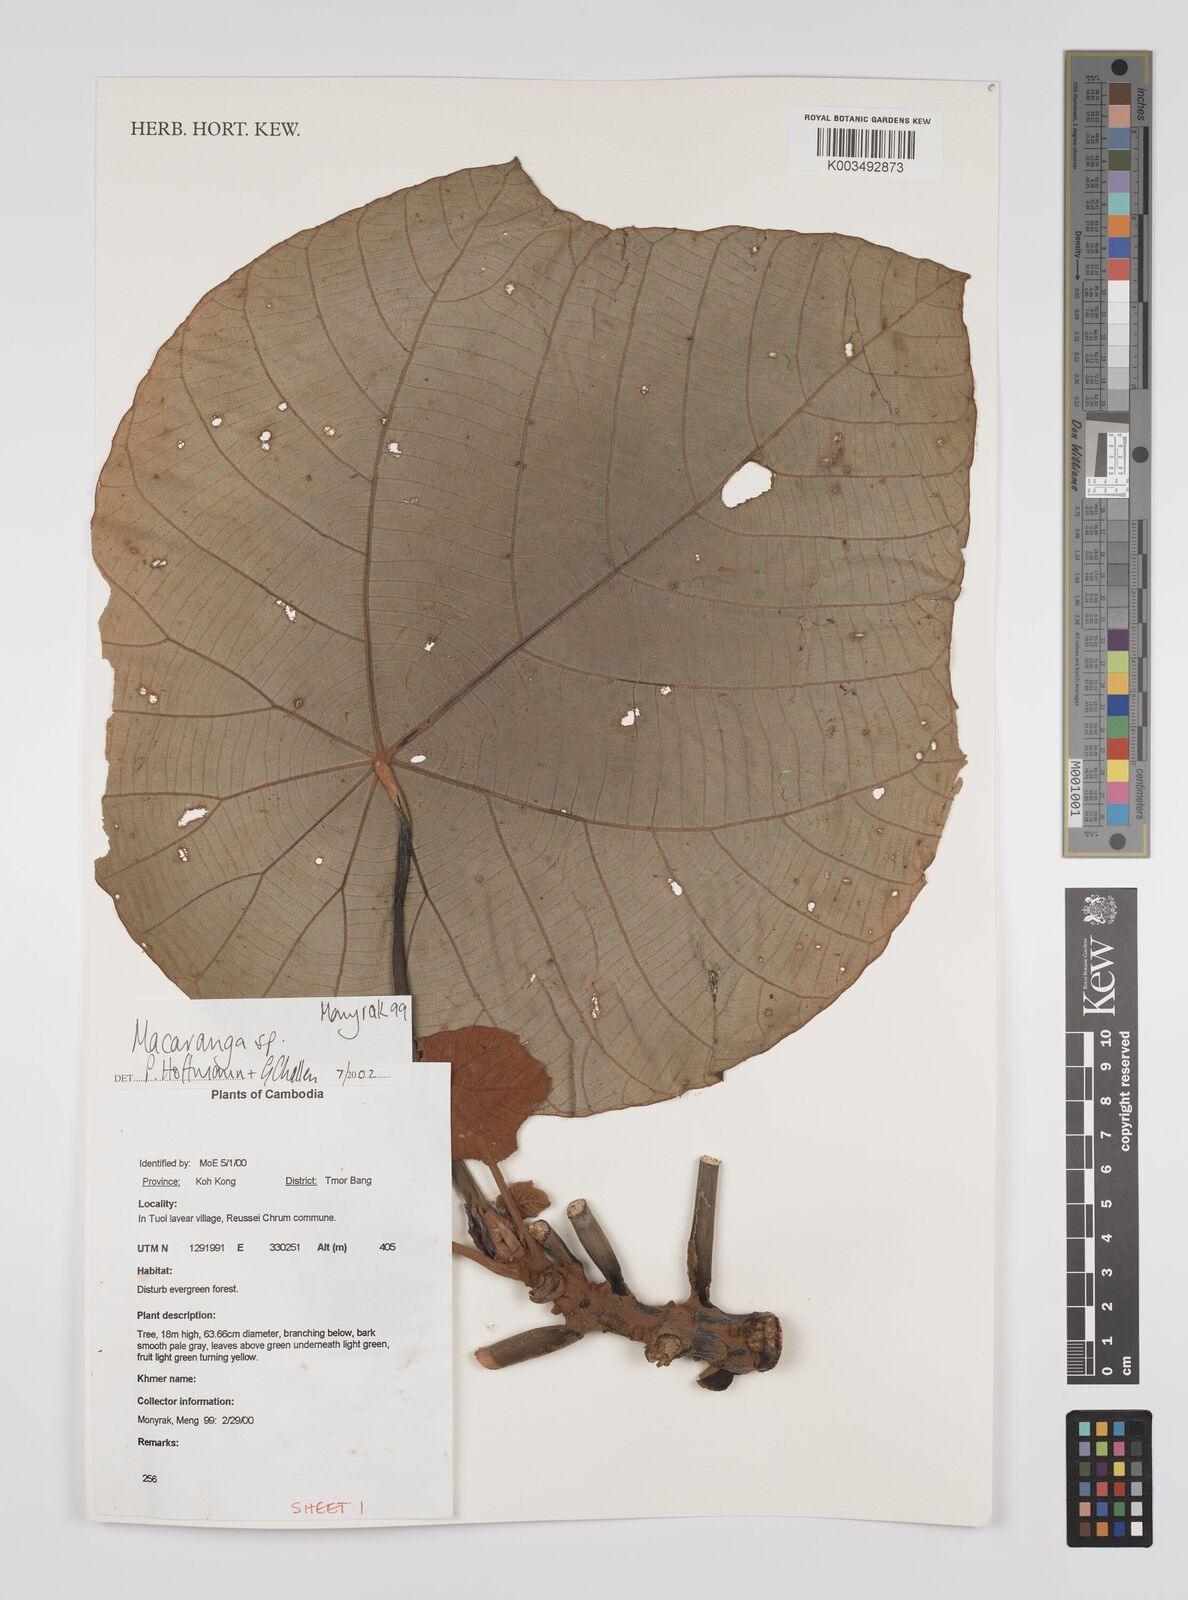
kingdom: Plantae
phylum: Tracheophyta
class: Magnoliopsida
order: Malpighiales
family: Euphorbiaceae
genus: Macaranga
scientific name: Macaranga
